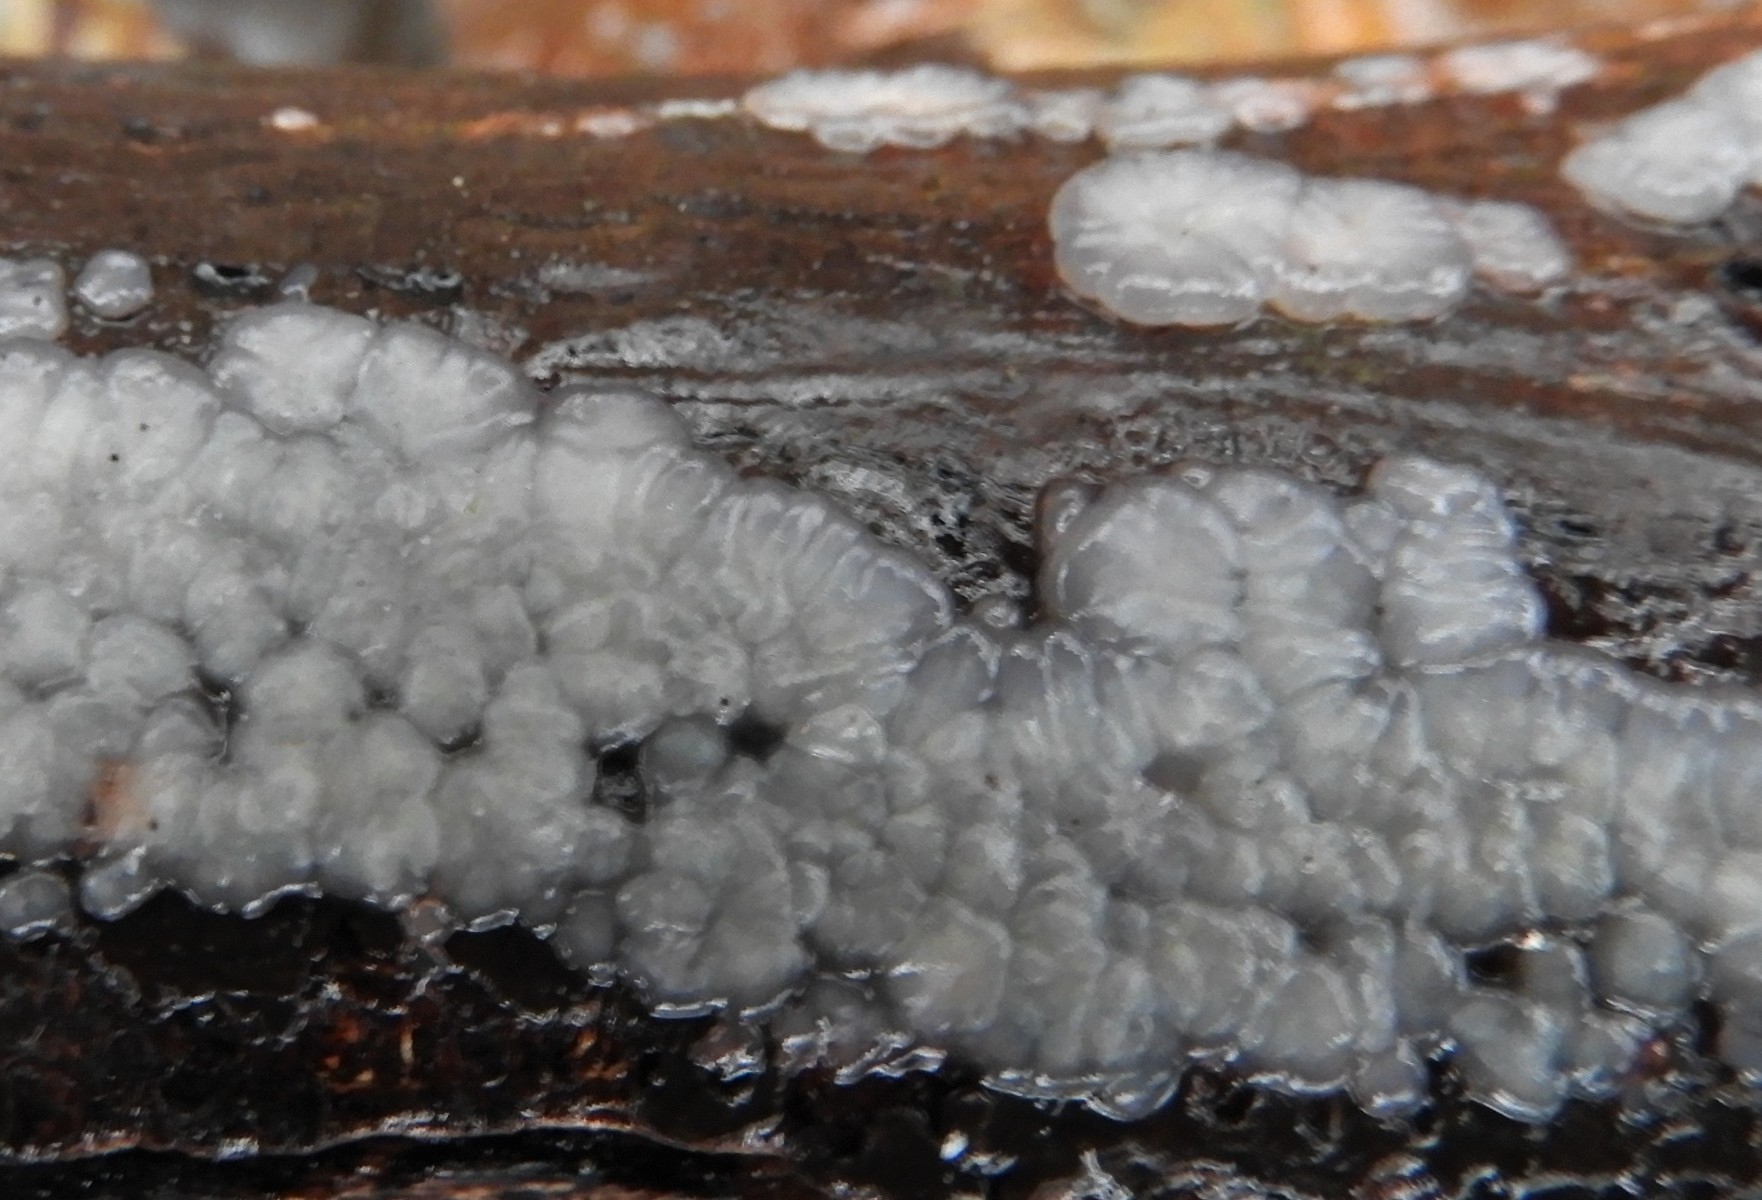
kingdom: Fungi
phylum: Basidiomycota
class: Agaricomycetes
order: Auriculariales
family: Auriculariaceae
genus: Exidia
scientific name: Exidia thuretiana
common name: hvidlig bævretop
